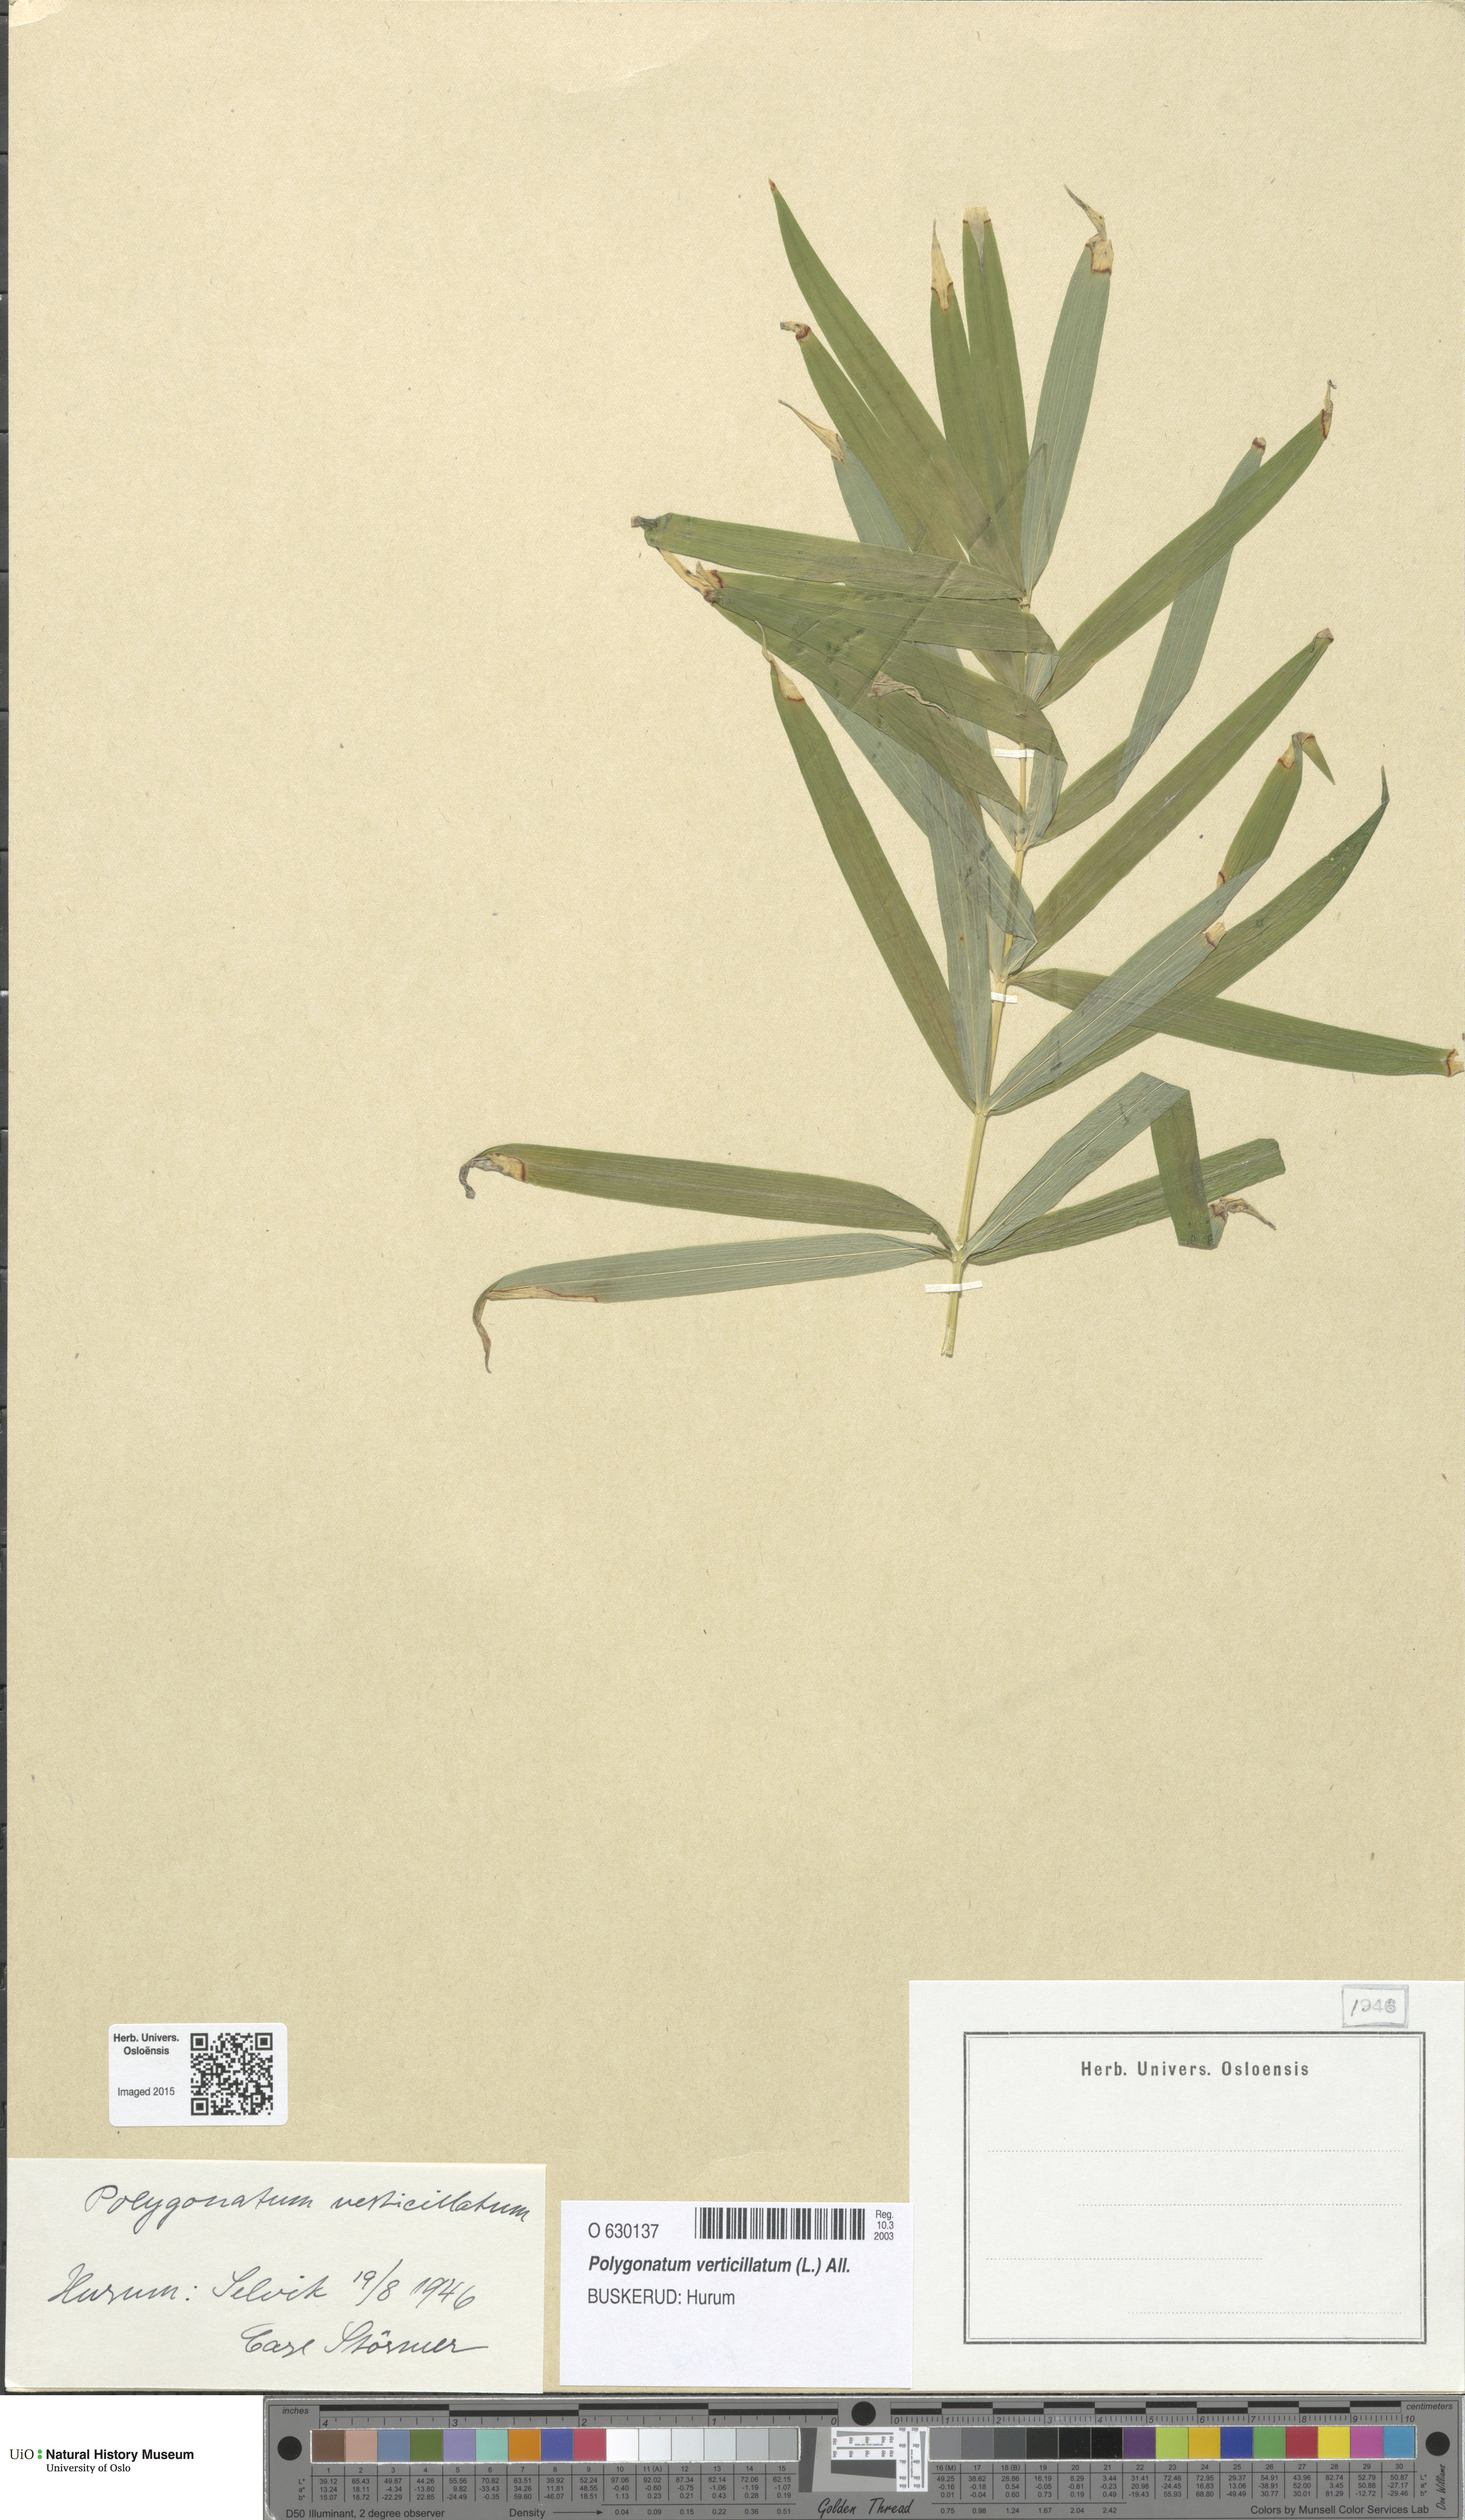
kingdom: Plantae
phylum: Tracheophyta
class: Liliopsida
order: Asparagales
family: Asparagaceae
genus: Polygonatum
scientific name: Polygonatum verticillatum
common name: Whorled solomon's-seal
